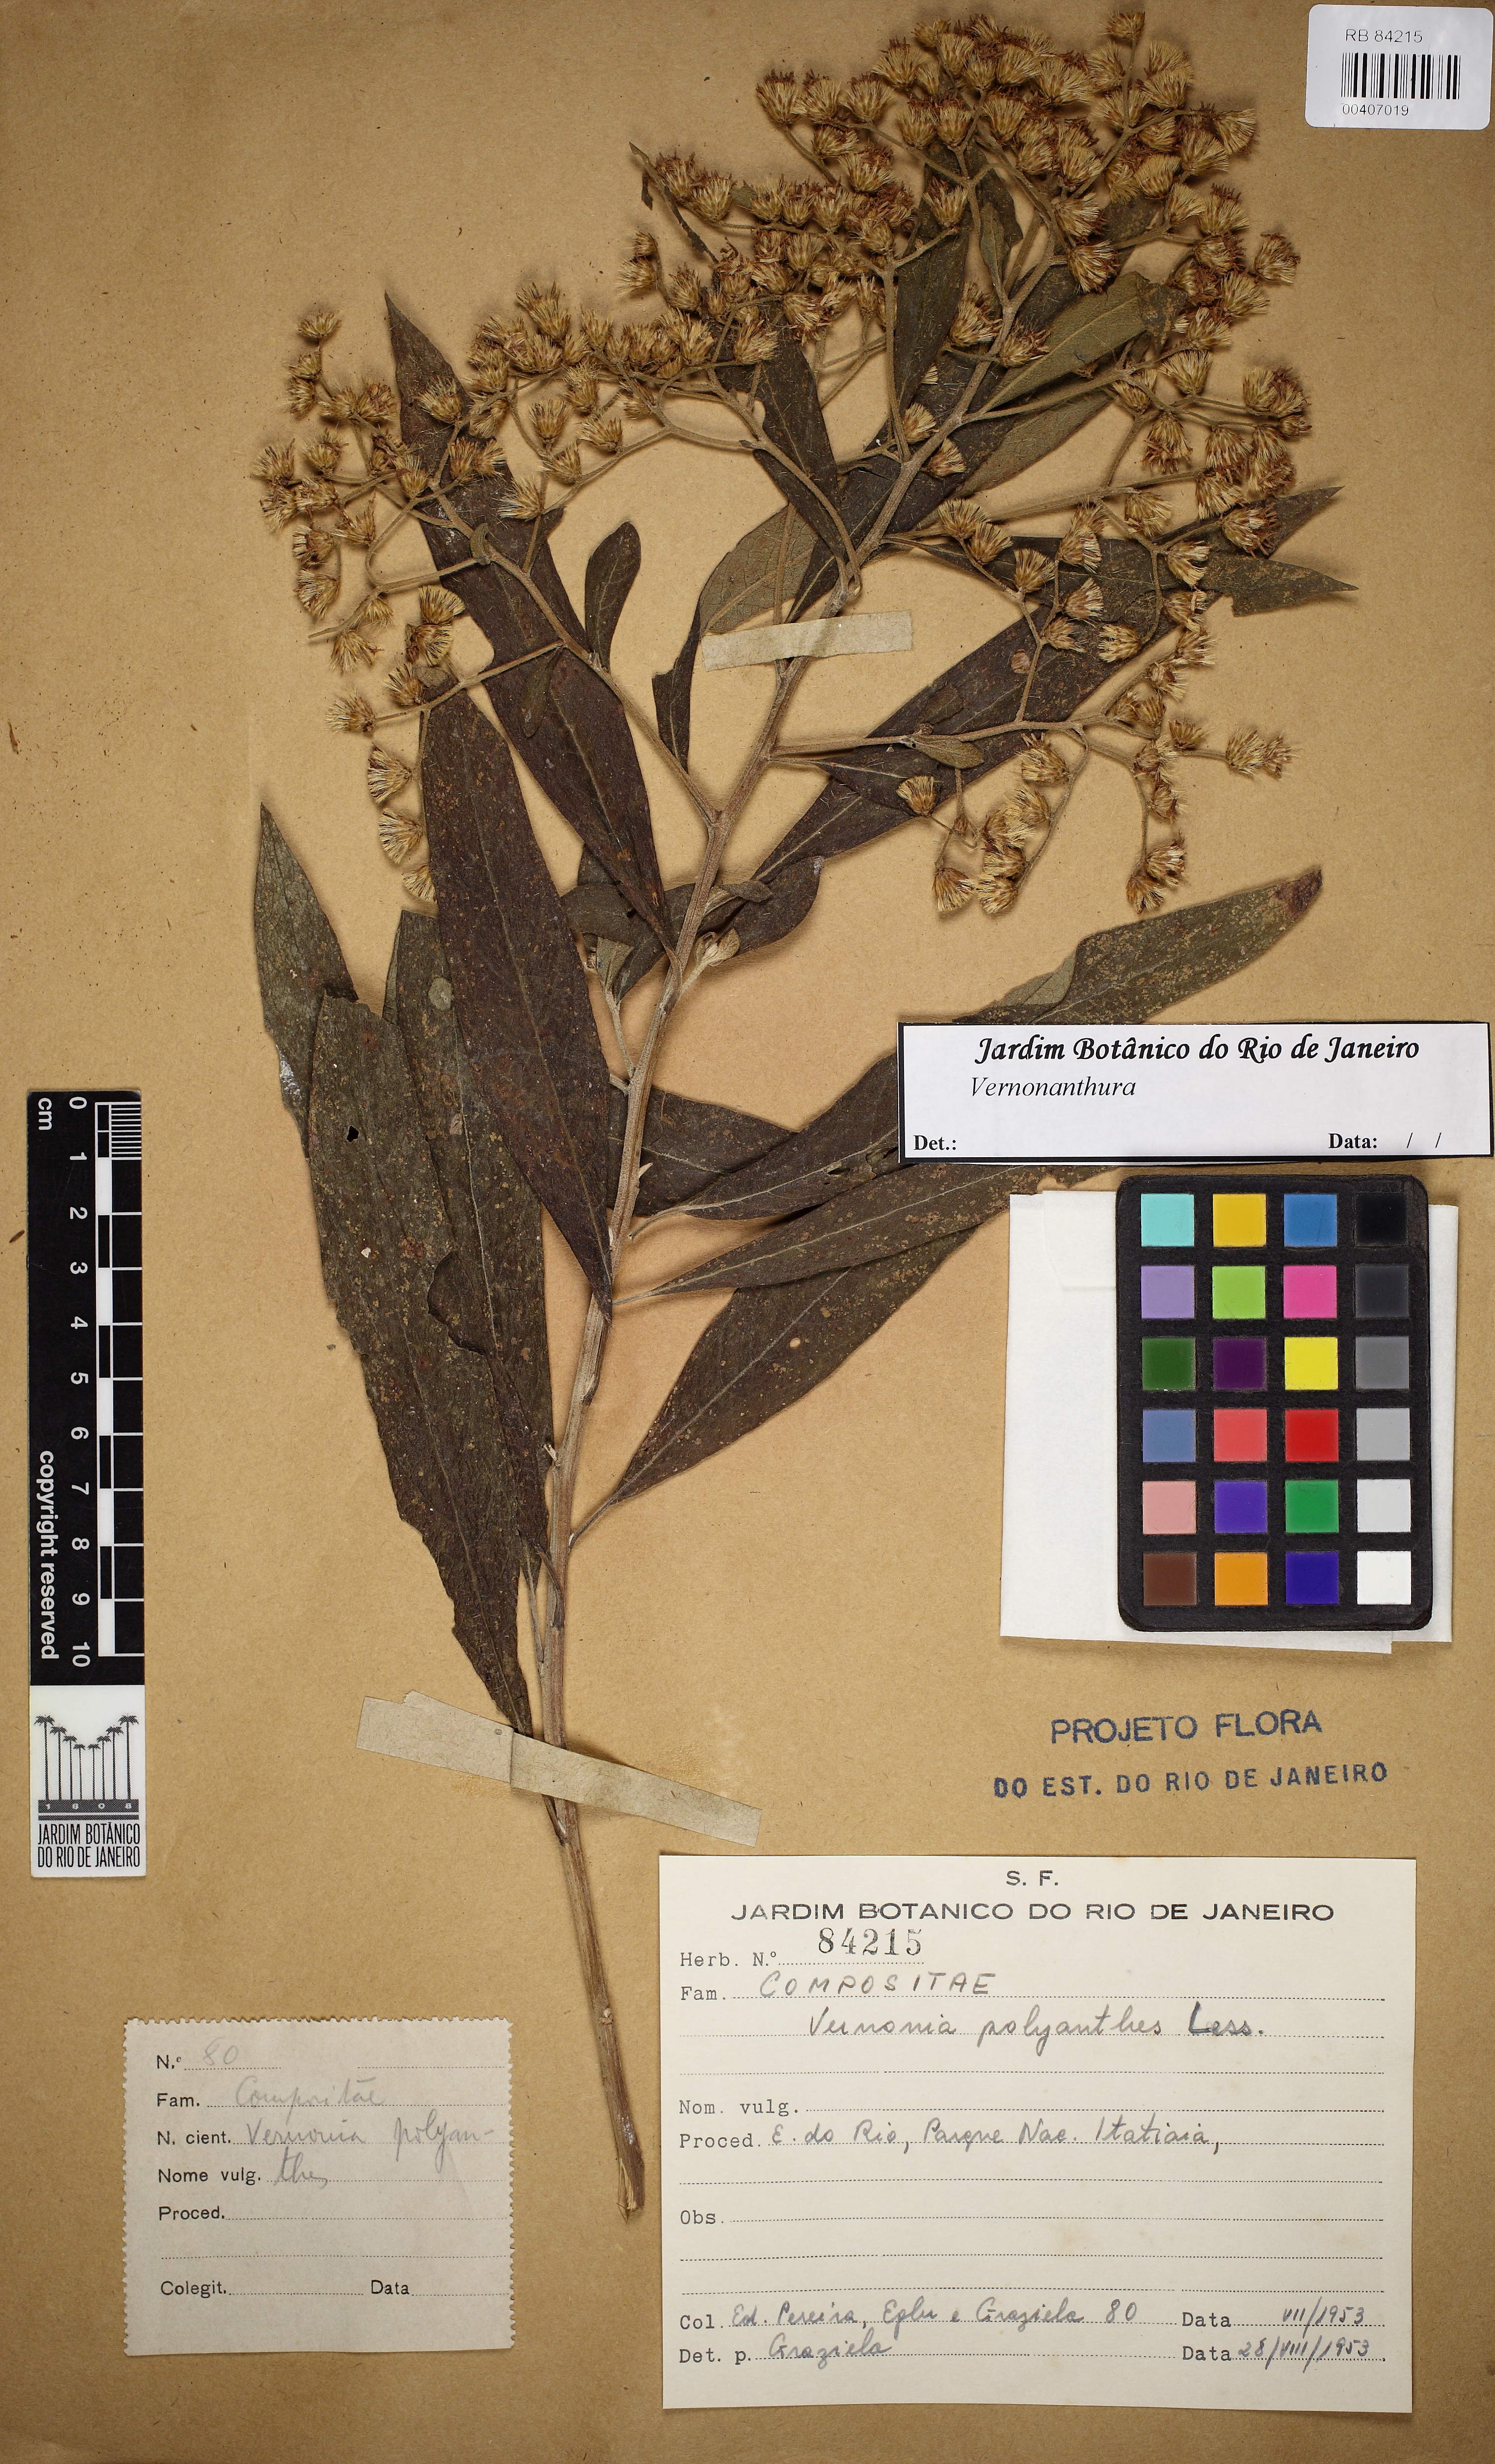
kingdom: Plantae
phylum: Tracheophyta
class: Magnoliopsida
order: Asterales
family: Asteraceae
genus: Vernonanthura
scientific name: Vernonanthura phosphorica
